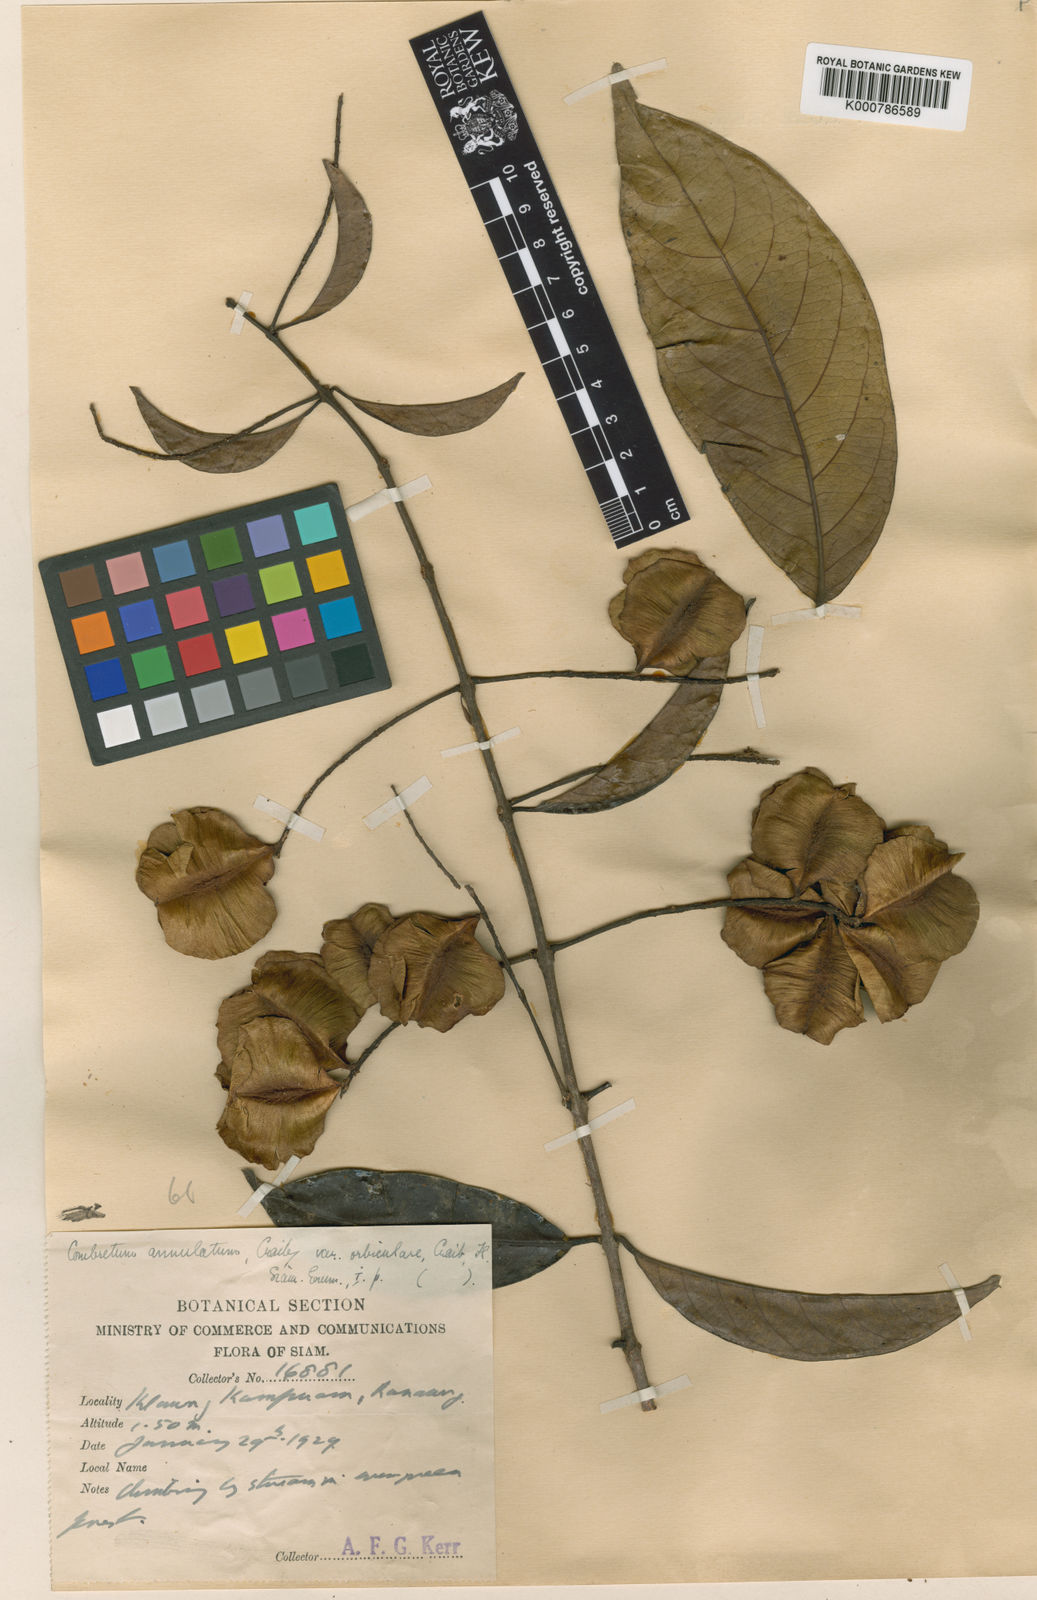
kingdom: Plantae
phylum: Tracheophyta
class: Magnoliopsida
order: Myrtales
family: Combretaceae
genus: Combretum
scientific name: Combretum chinense
